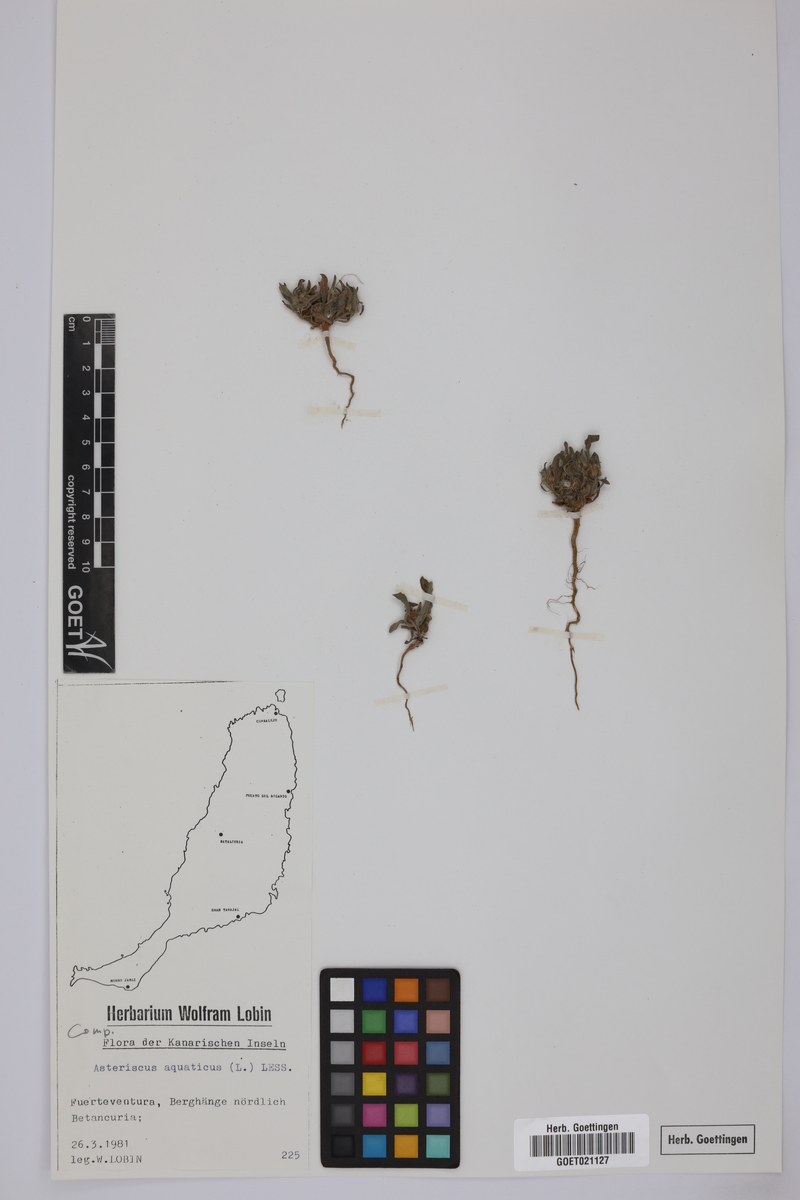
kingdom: Plantae
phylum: Tracheophyta
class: Magnoliopsida
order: Asterales
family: Asteraceae
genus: Asteriscus
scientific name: Asteriscus aquaticus
